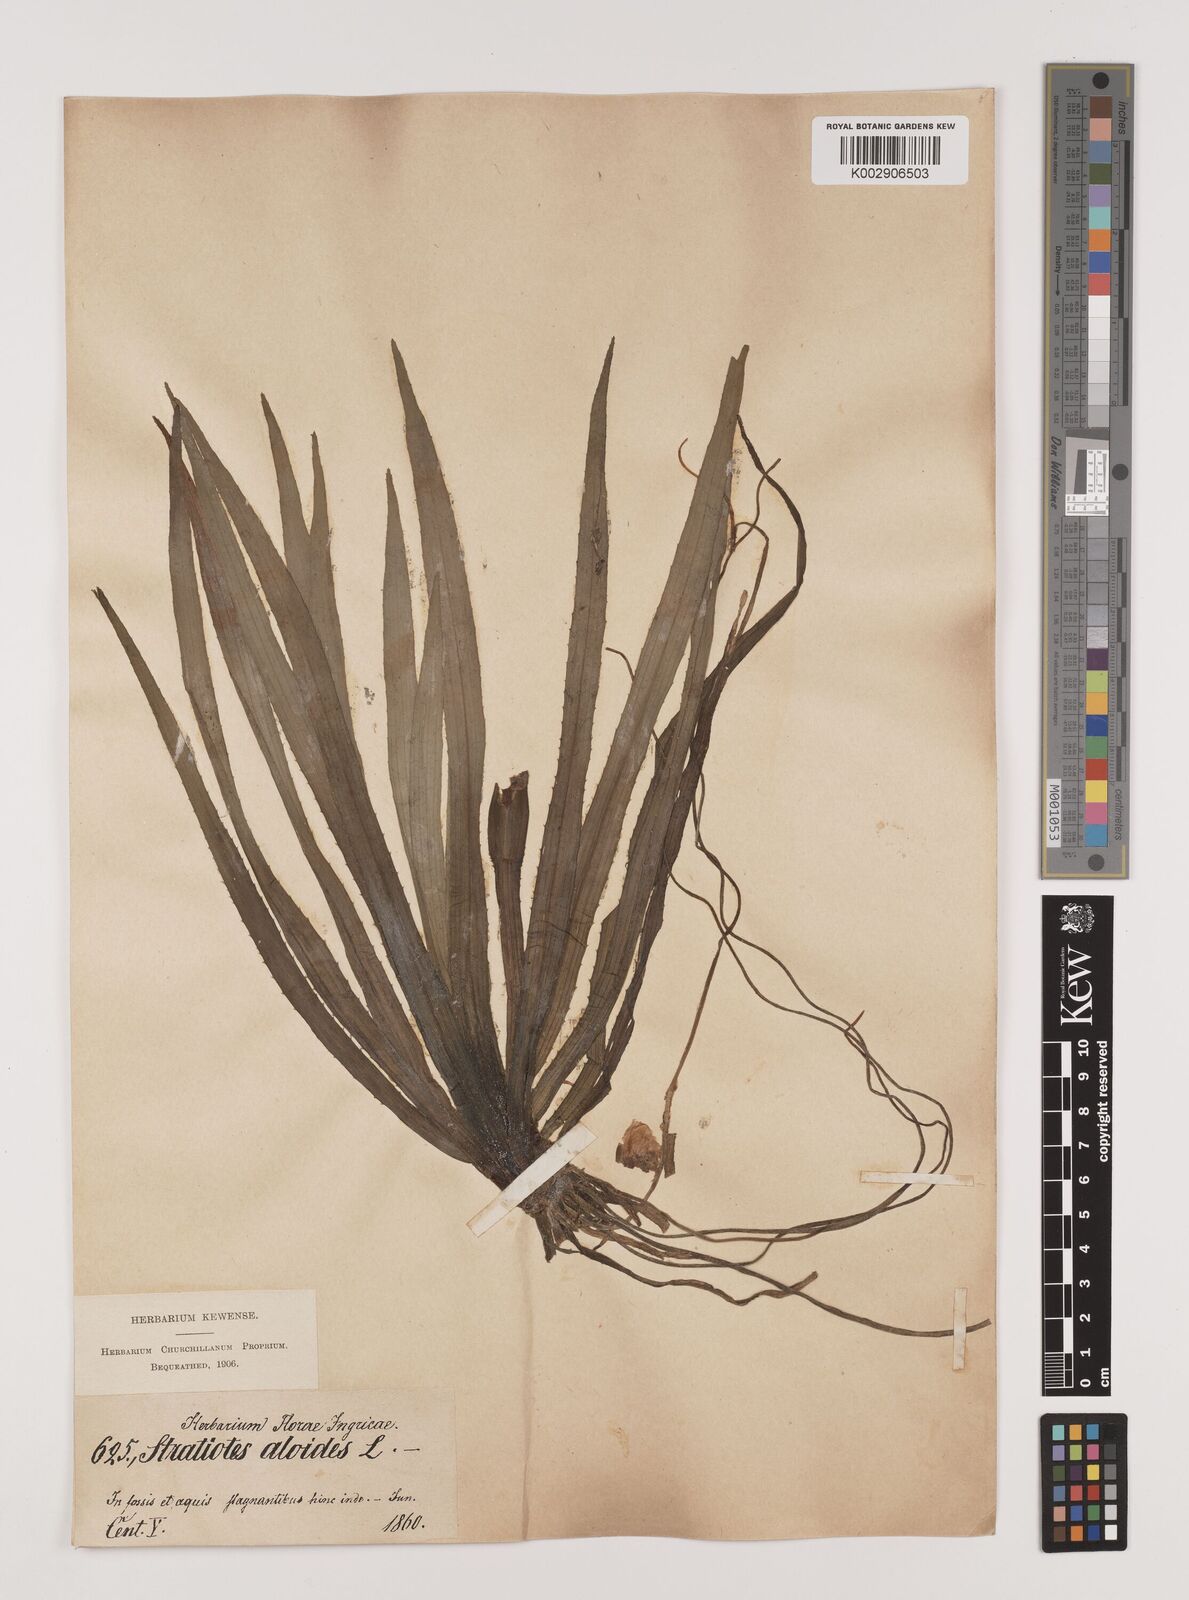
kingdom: Plantae
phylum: Tracheophyta
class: Liliopsida
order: Alismatales
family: Hydrocharitaceae
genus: Stratiotes
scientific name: Stratiotes aloides
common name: Water-soldier
